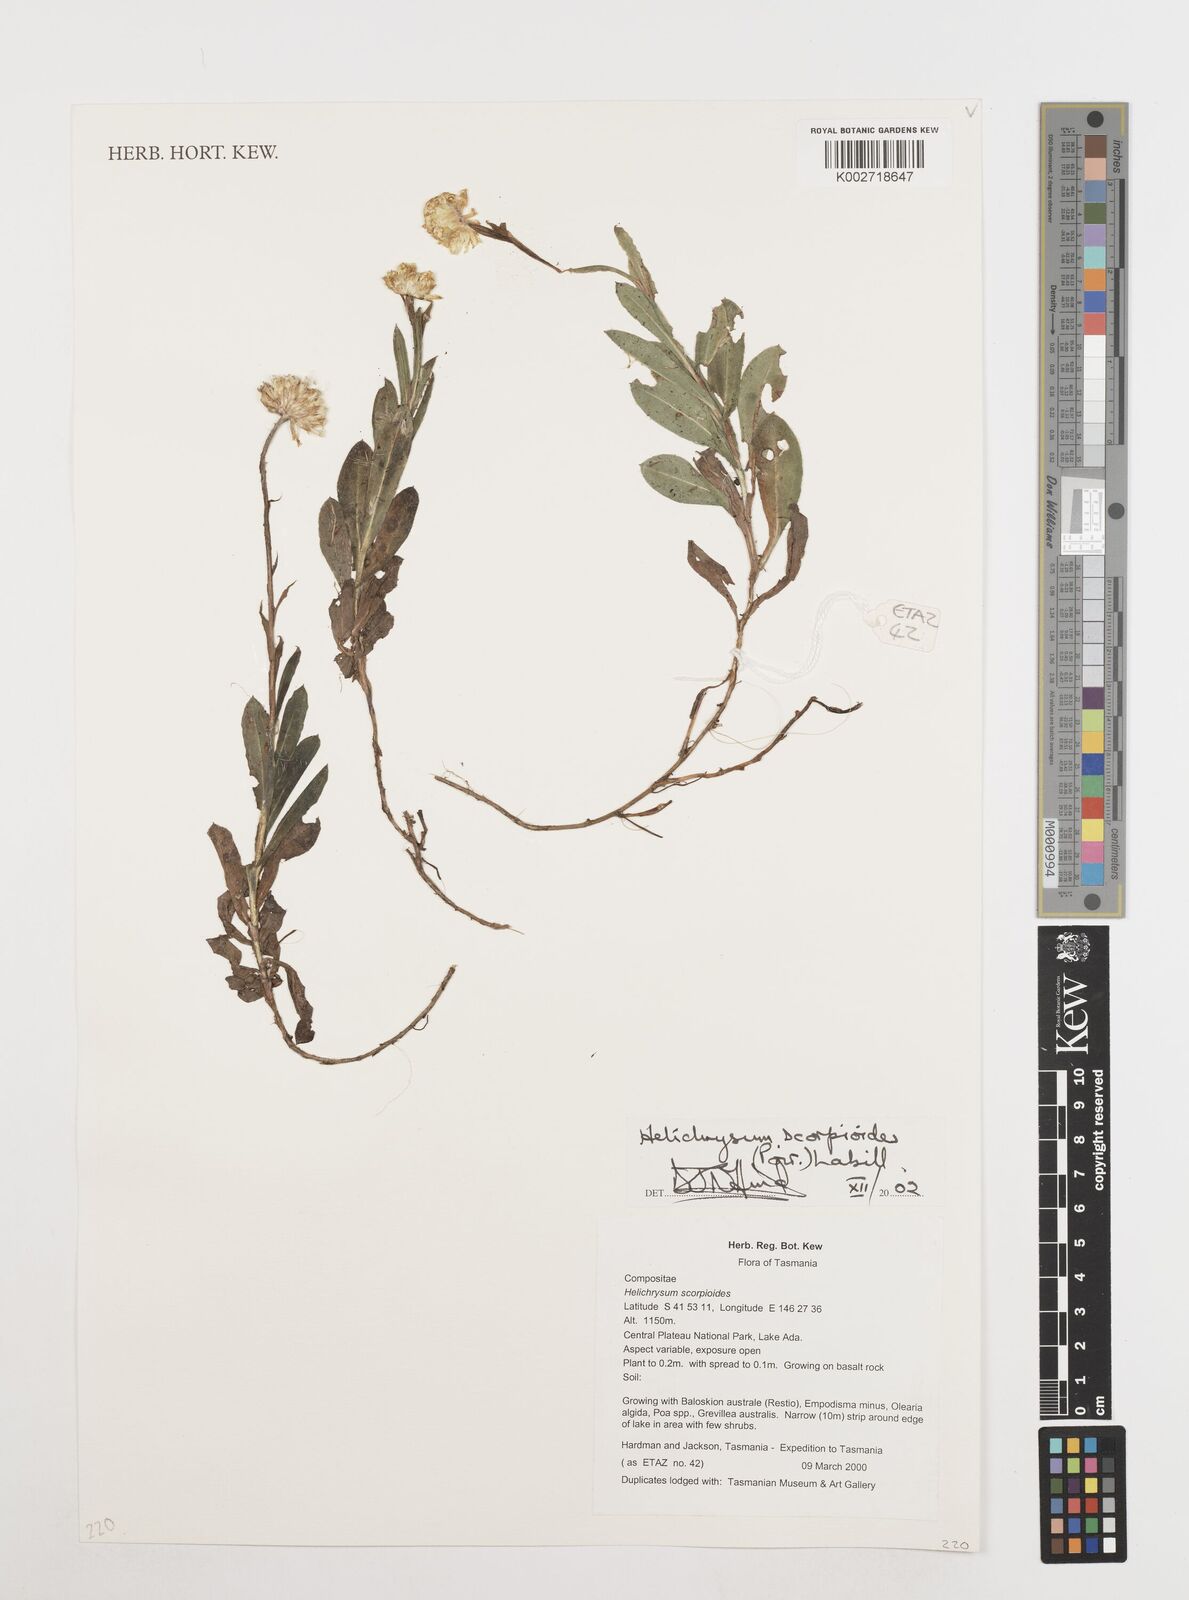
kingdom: Plantae
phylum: Tracheophyta
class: Magnoliopsida
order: Asterales
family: Asteraceae
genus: Coronidium
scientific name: Coronidium scorpioides
